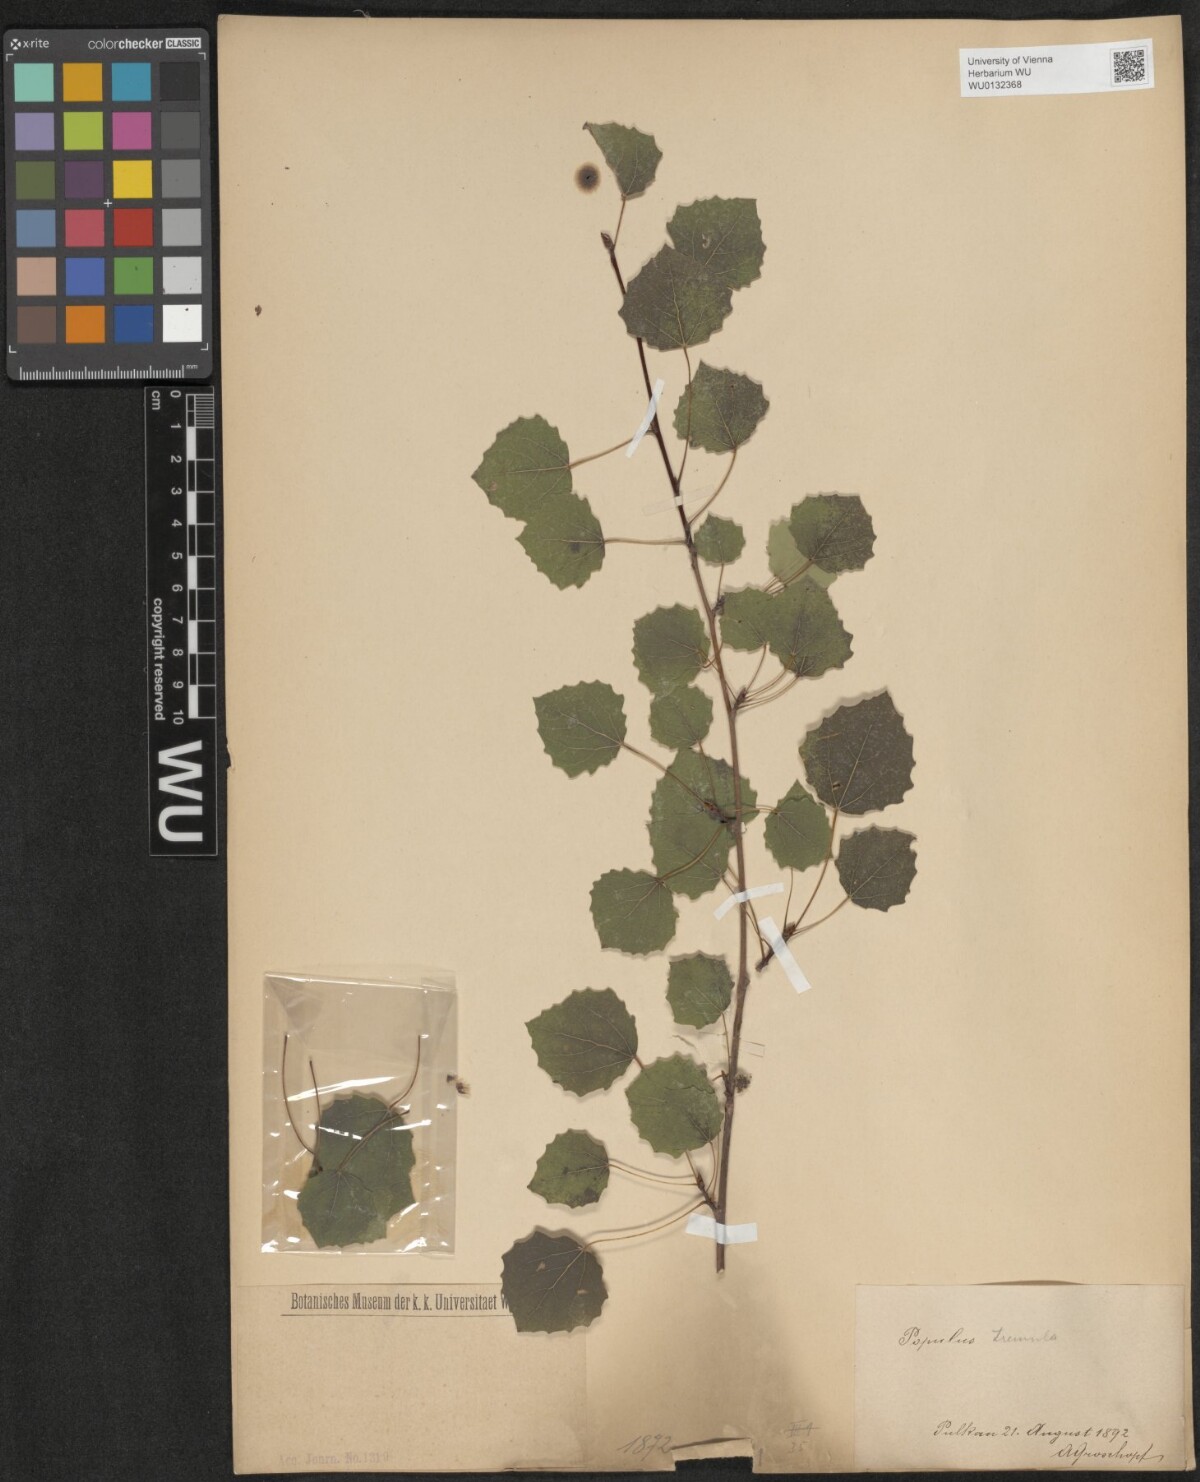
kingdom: Plantae
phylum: Tracheophyta
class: Magnoliopsida
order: Malpighiales
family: Salicaceae
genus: Populus
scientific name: Populus tremula
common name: European aspen
